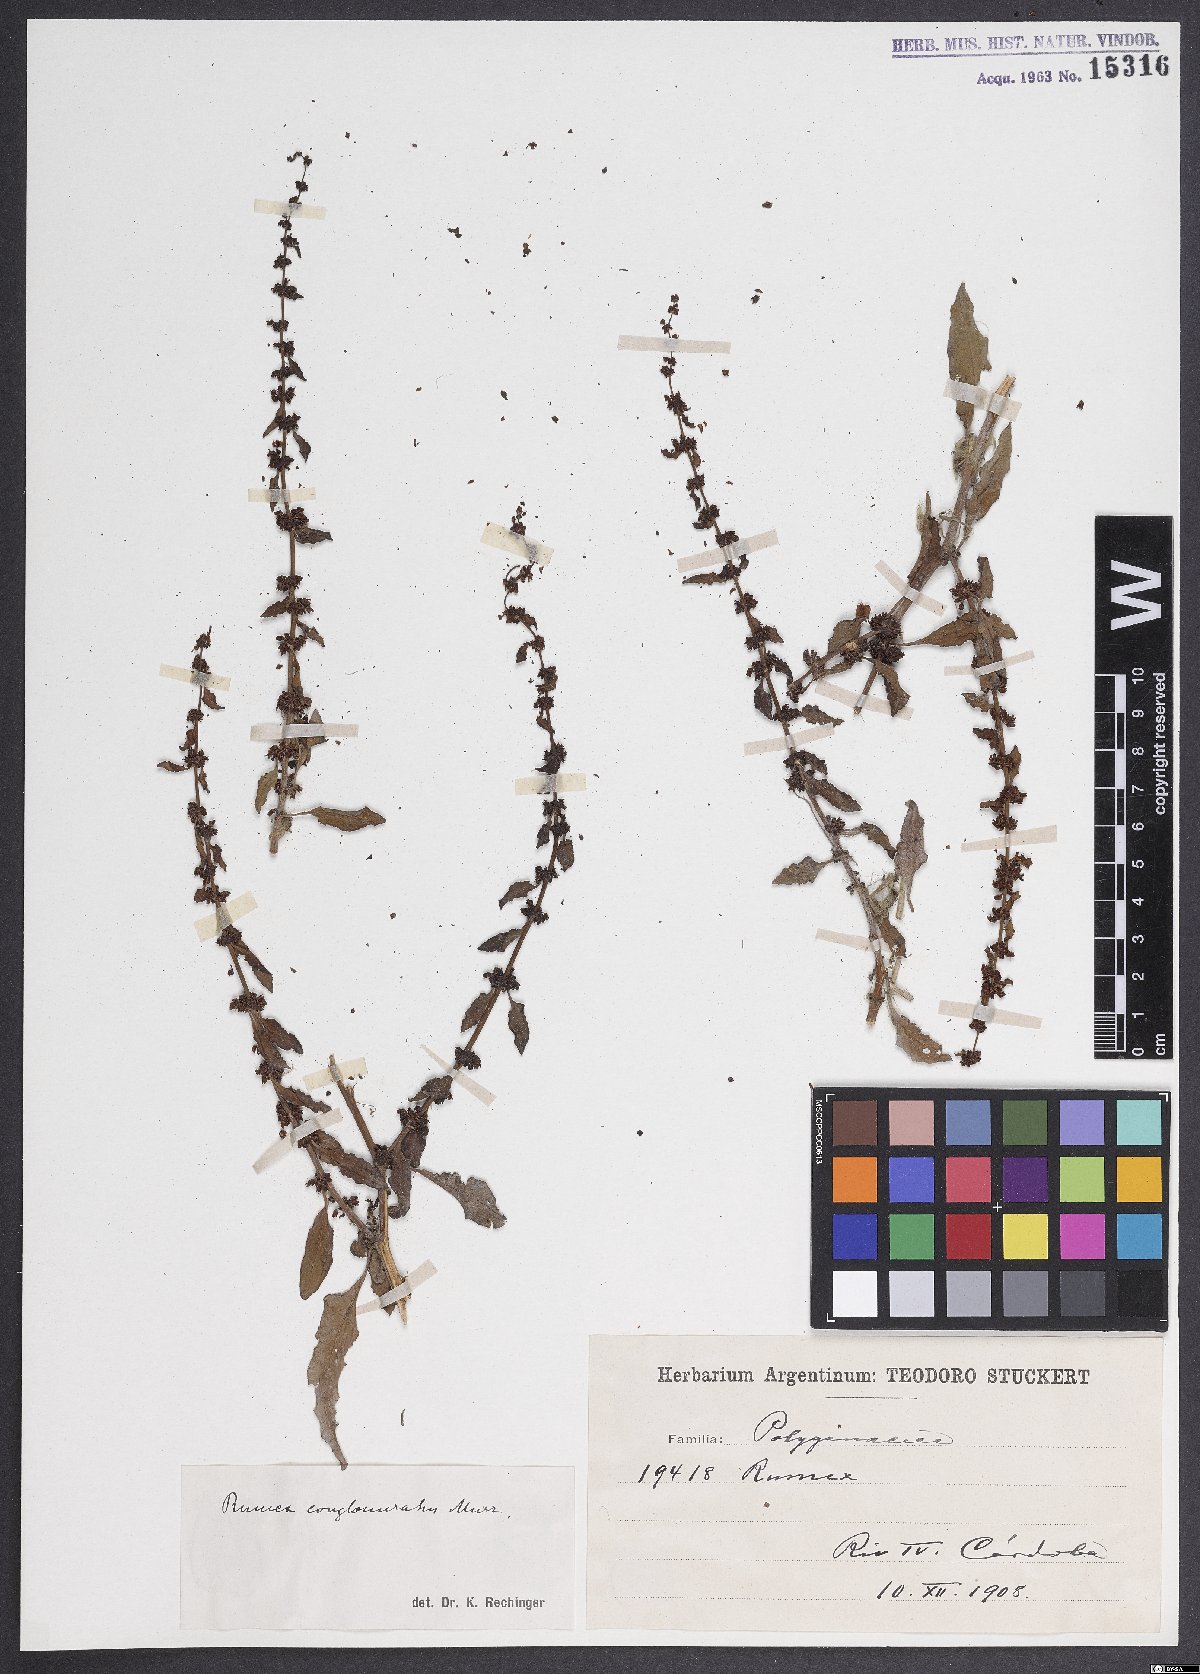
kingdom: Plantae
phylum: Tracheophyta
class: Magnoliopsida
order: Caryophyllales
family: Polygonaceae
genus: Rumex
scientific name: Rumex conglomeratus
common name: Clustered dock
